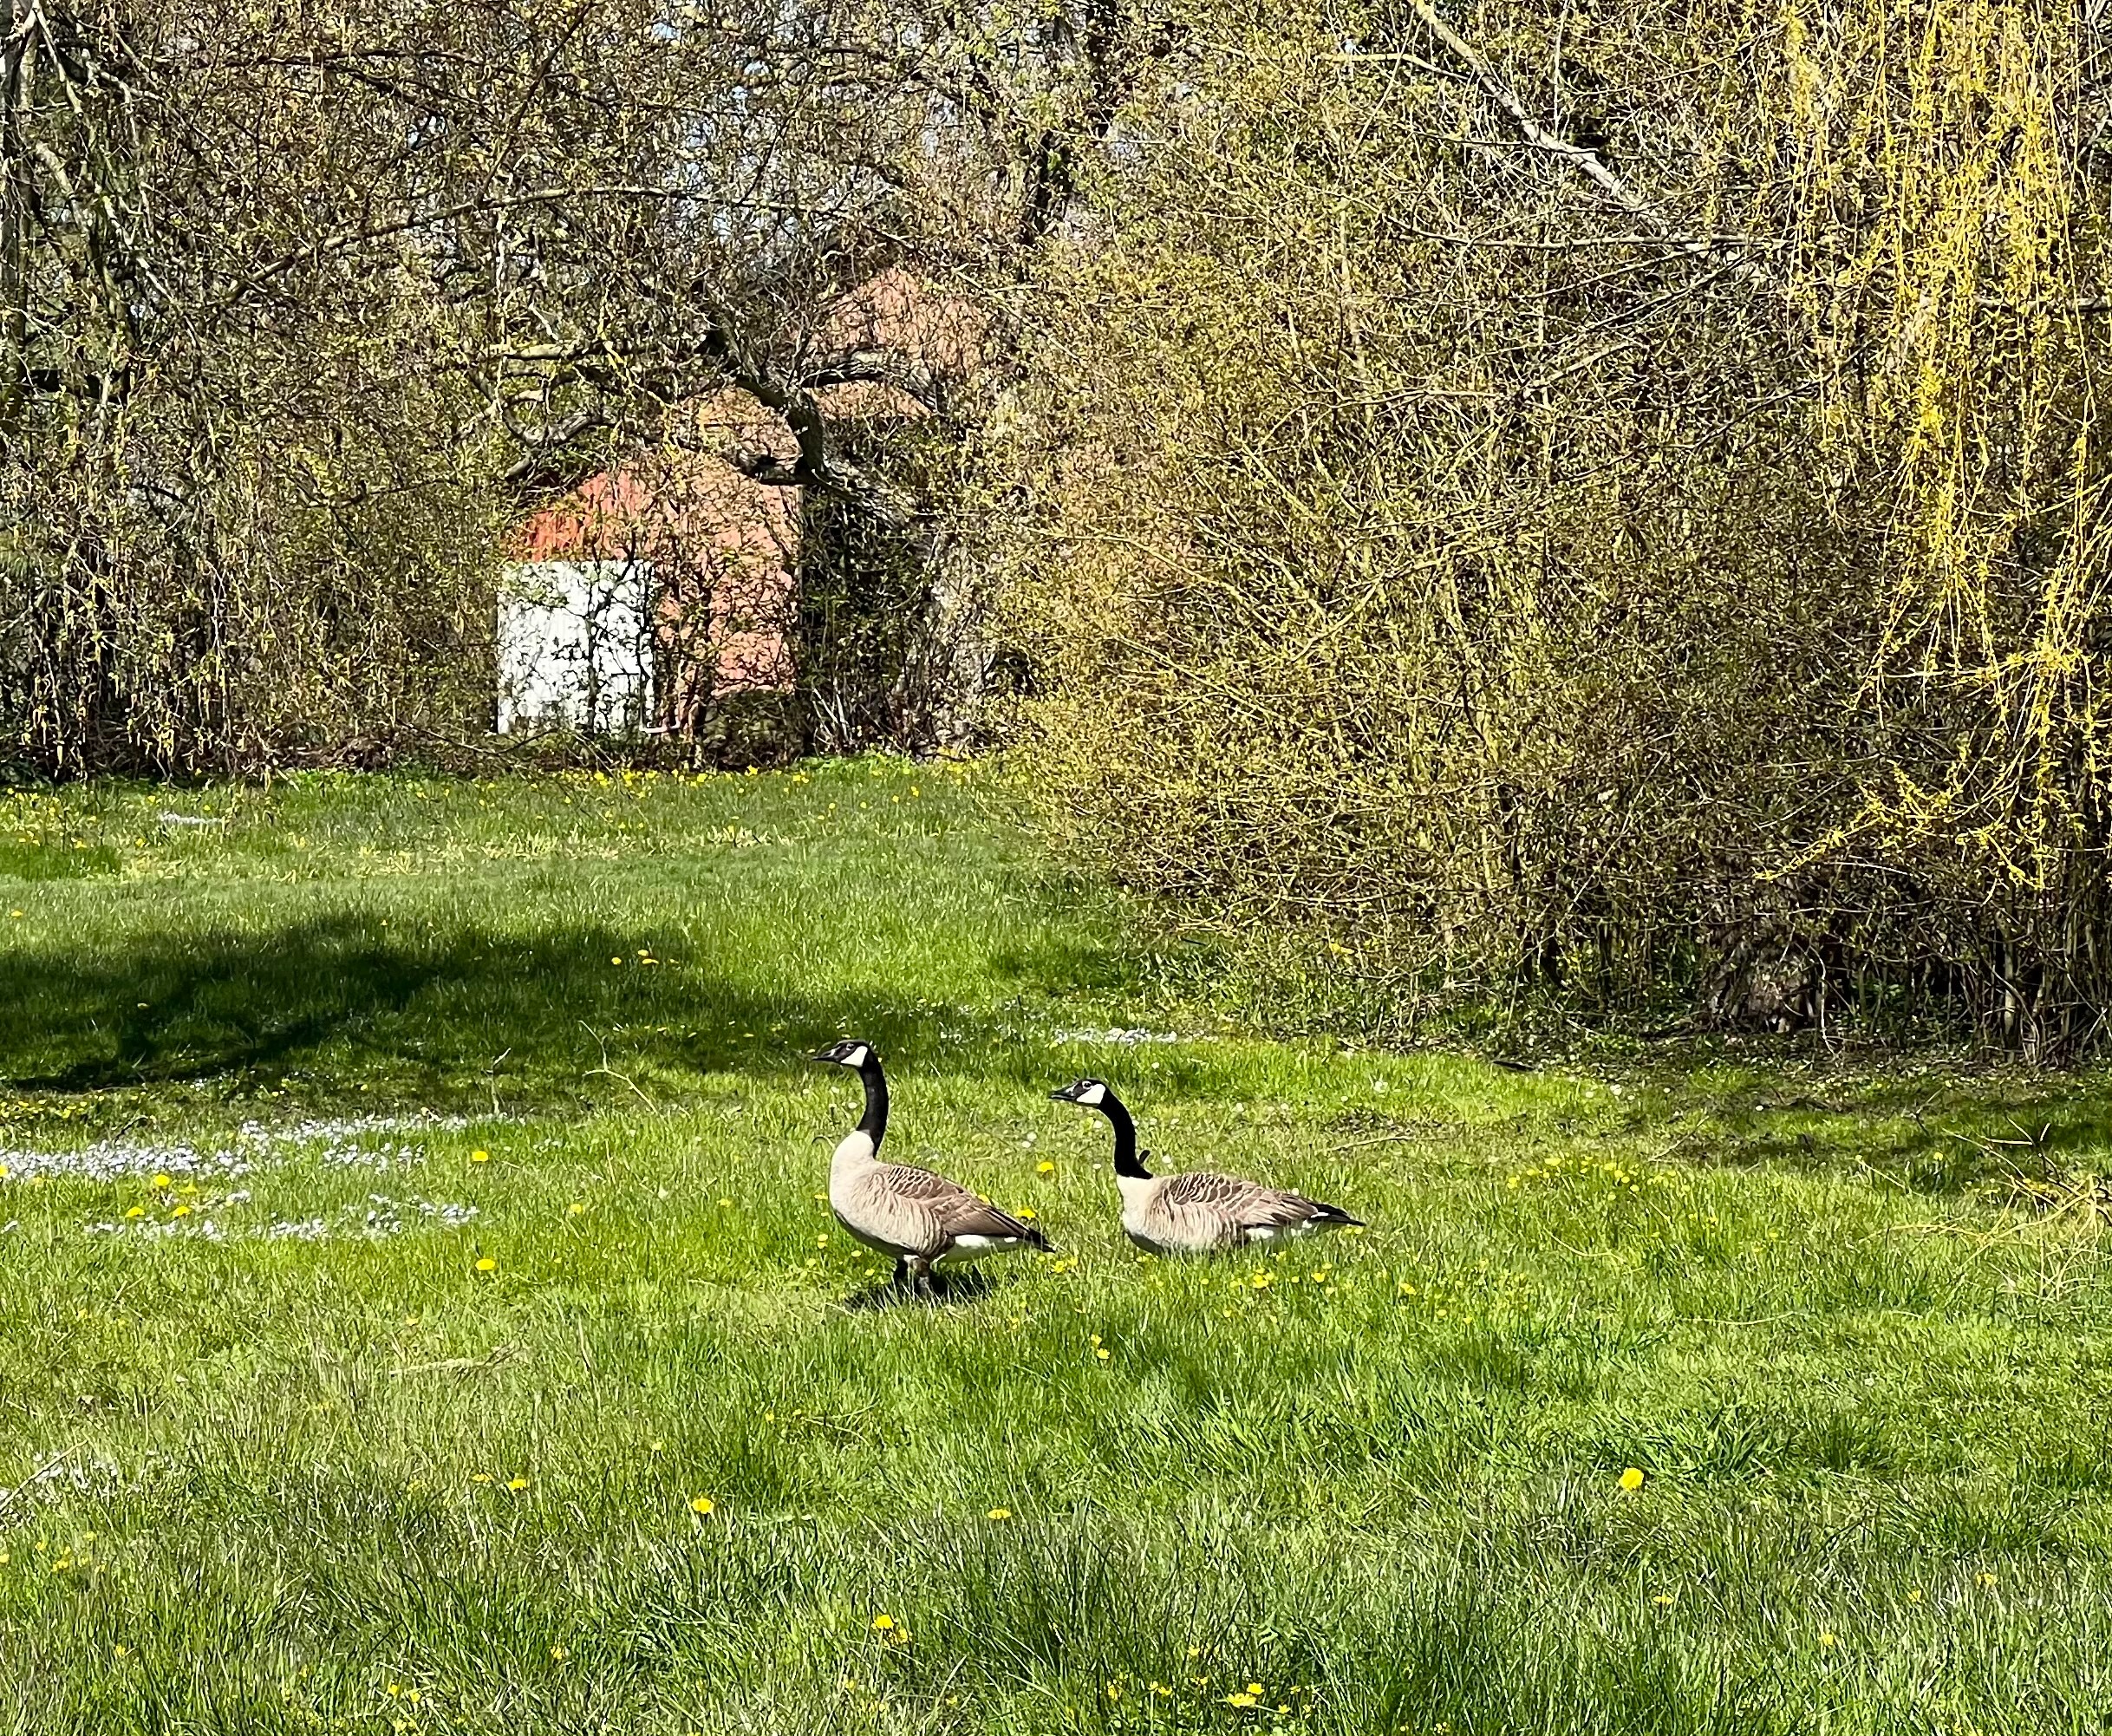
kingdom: Animalia
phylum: Chordata
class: Aves
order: Anseriformes
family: Anatidae
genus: Branta
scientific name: Branta canadensis
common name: Canadagås
